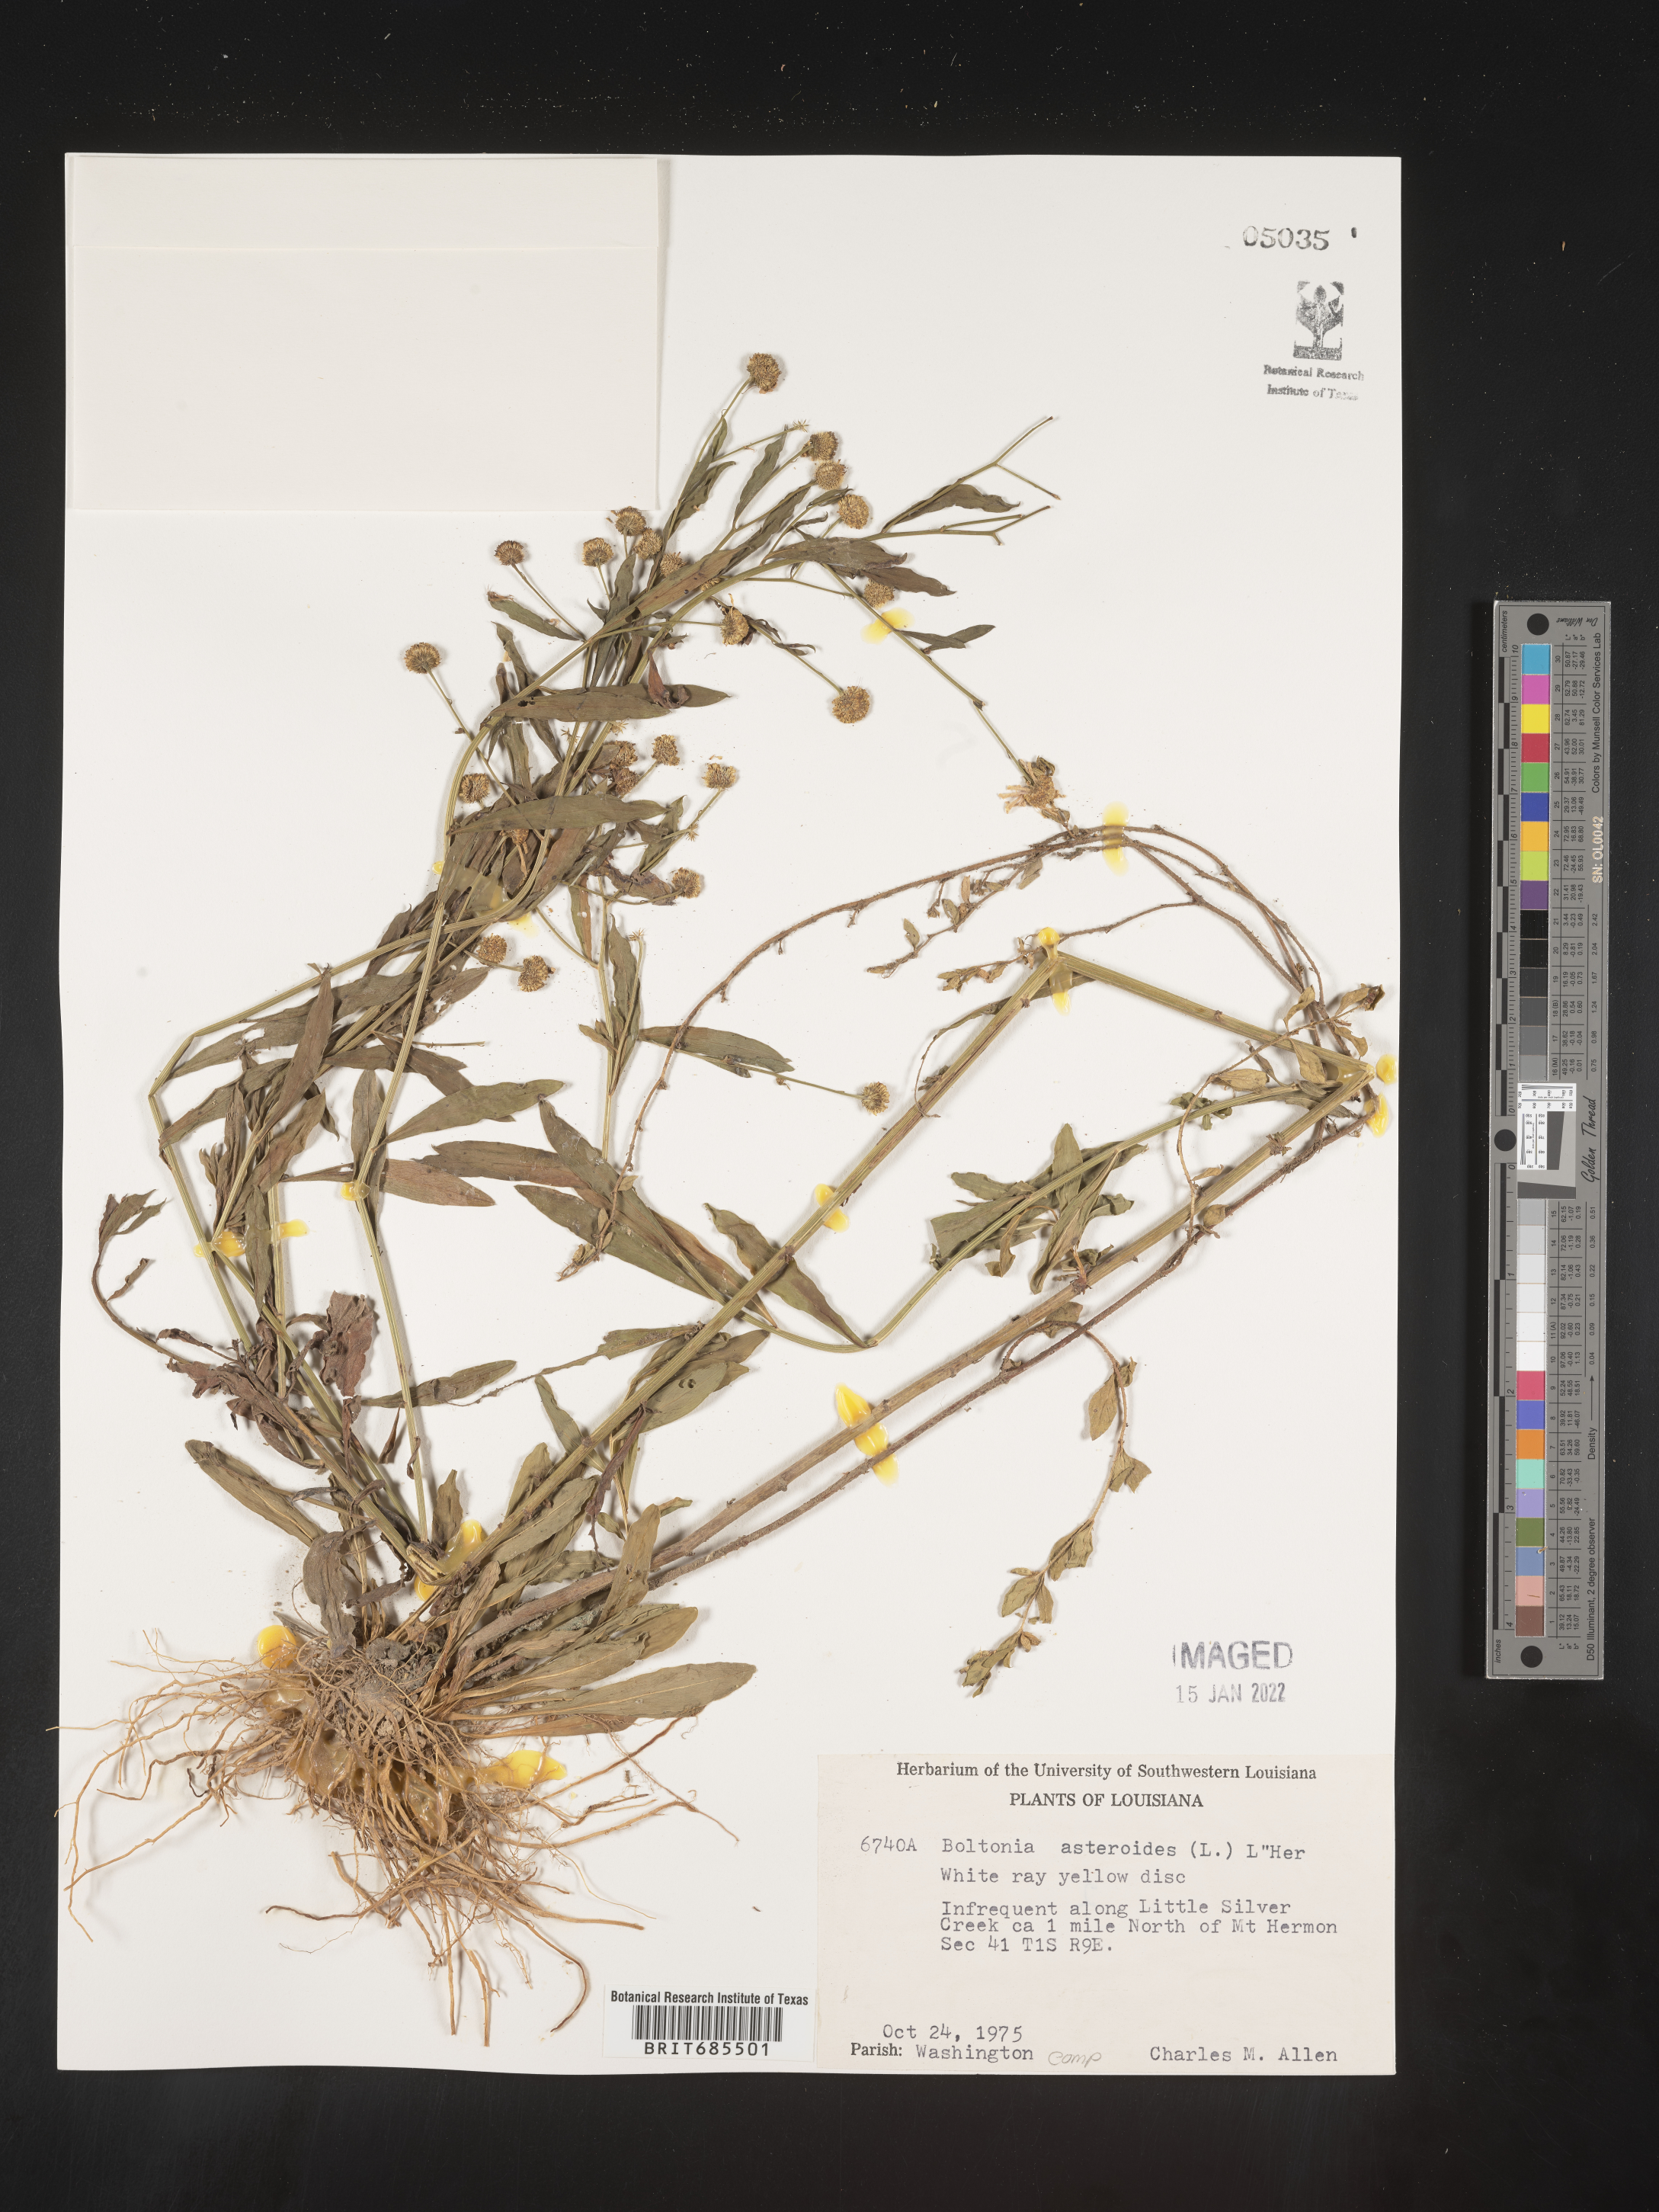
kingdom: Plantae
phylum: Tracheophyta
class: Magnoliopsida
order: Asterales
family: Asteraceae
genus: Boltonia
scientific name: Boltonia asteroides
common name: False chamomile
